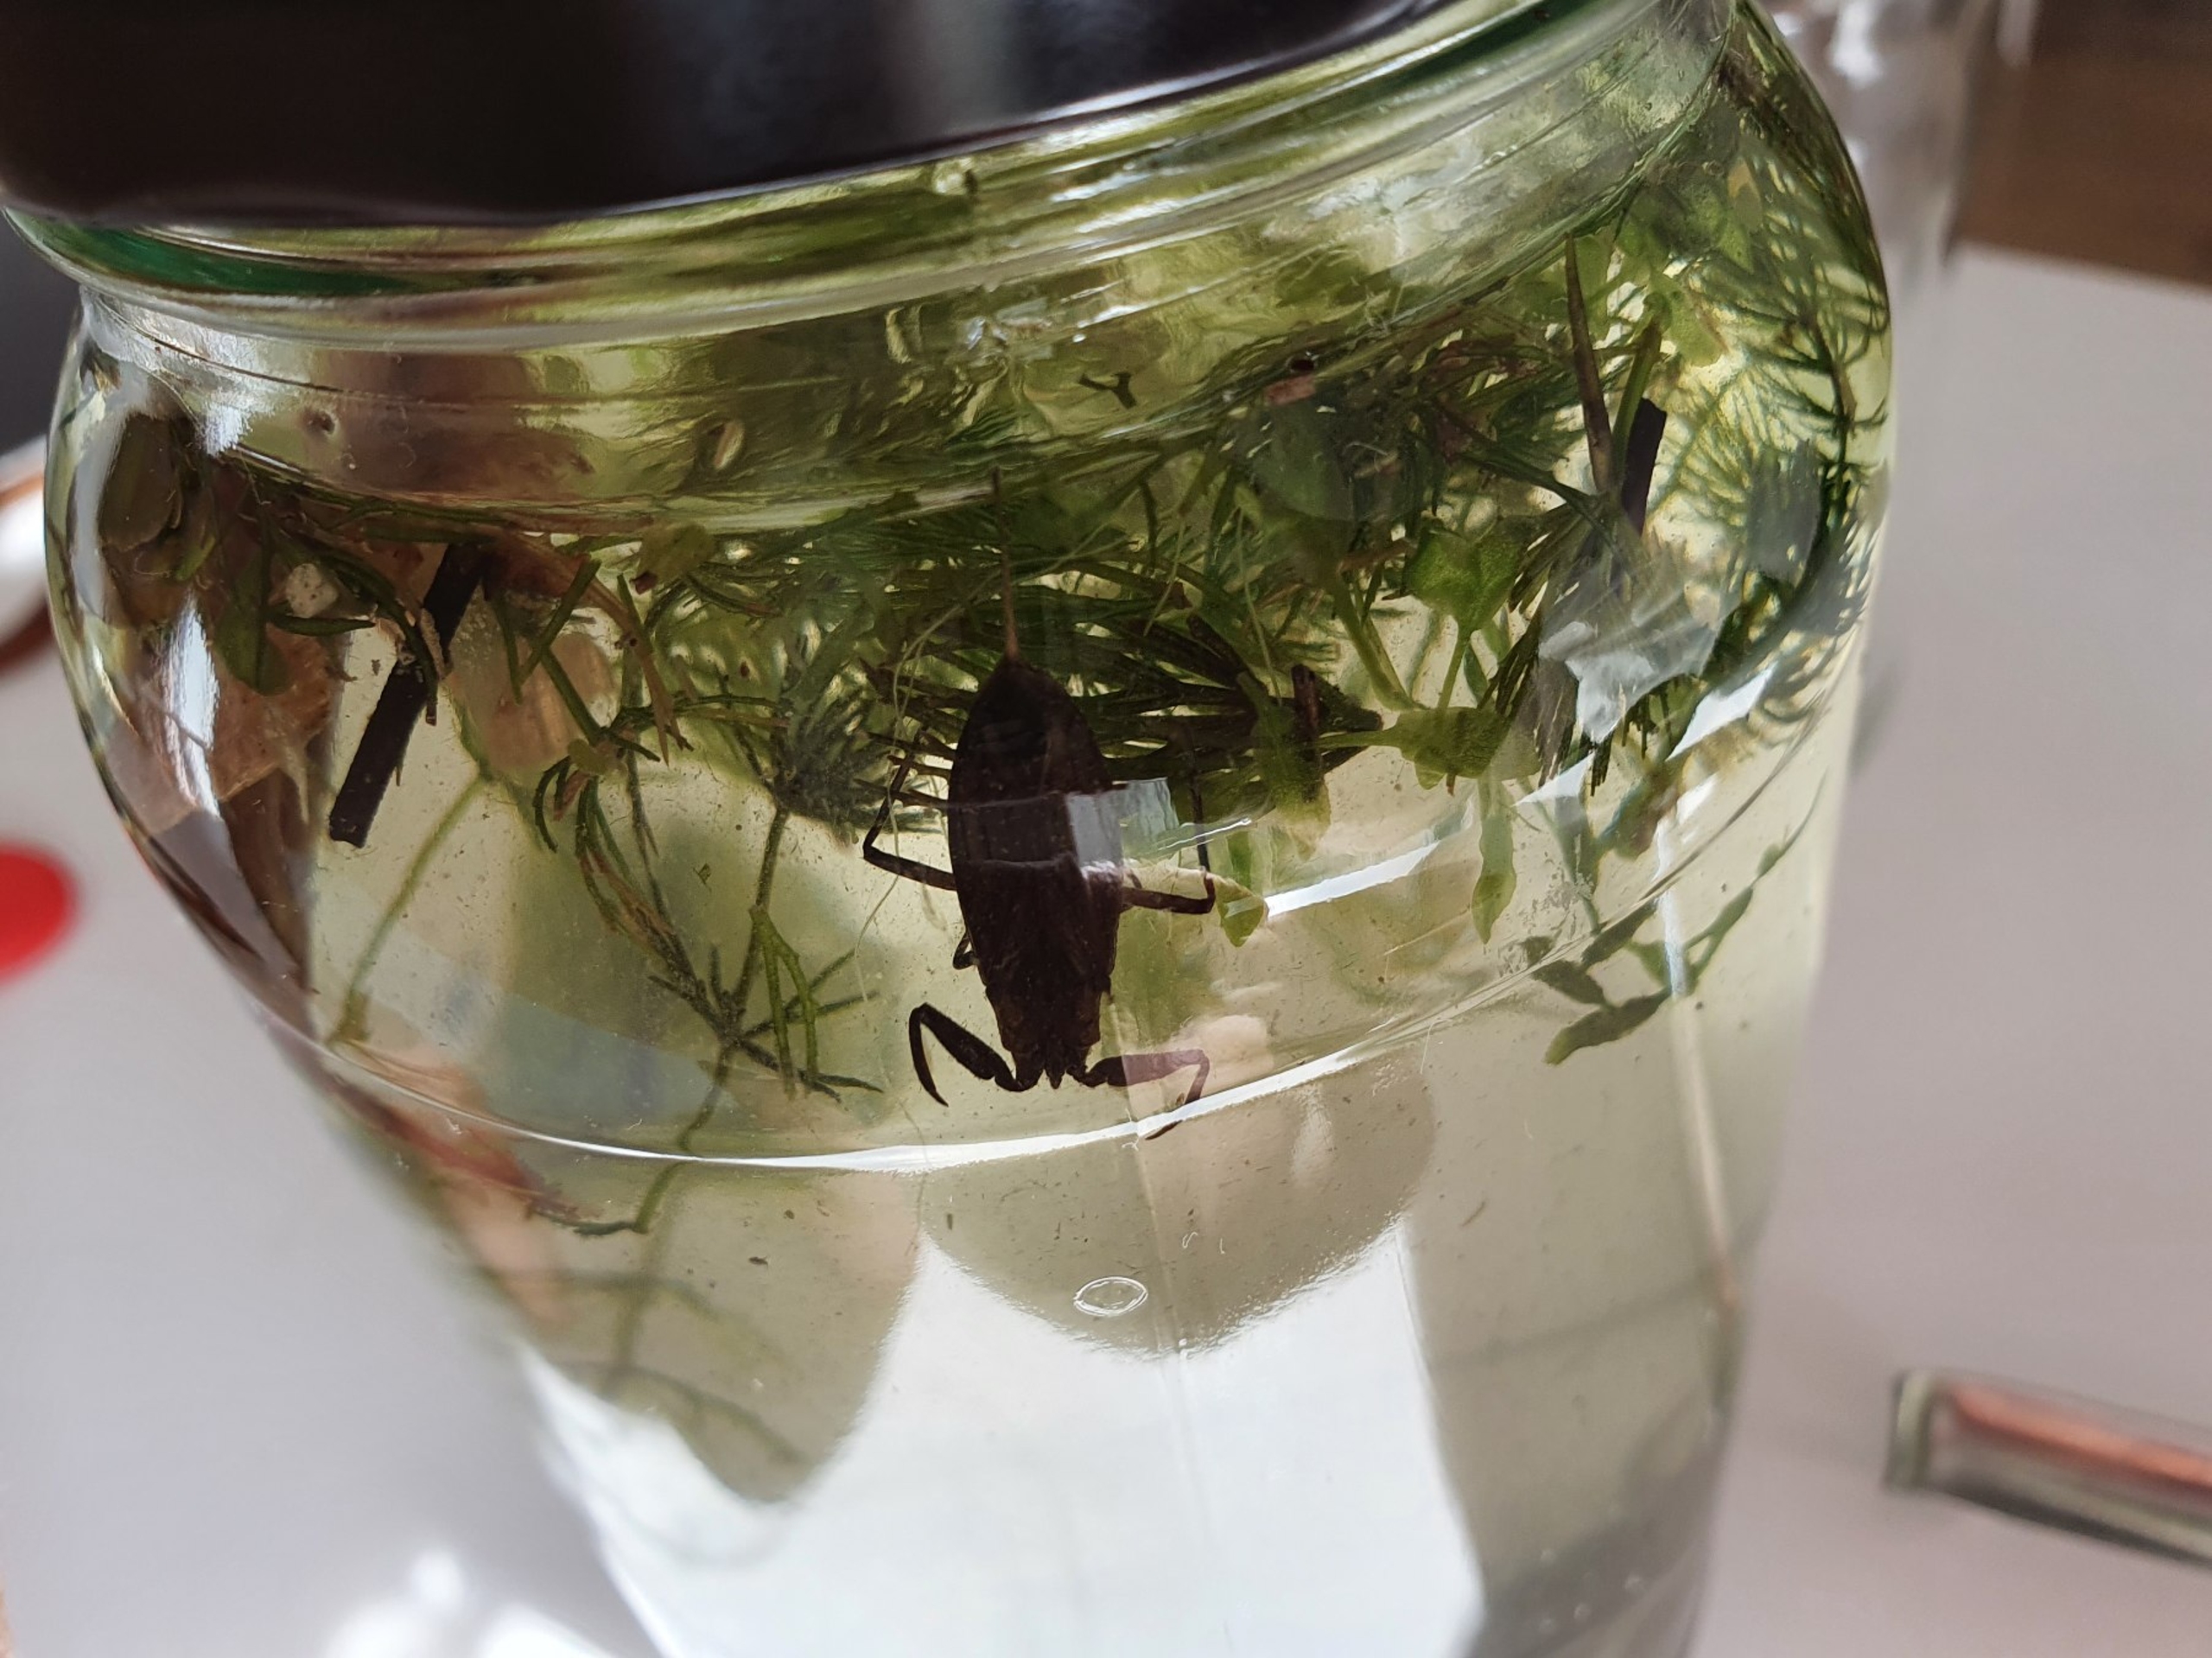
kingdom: Animalia
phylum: Arthropoda
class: Insecta
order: Hemiptera
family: Nepidae
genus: Nepa
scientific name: Nepa cinerea
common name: Skorpiontæge
